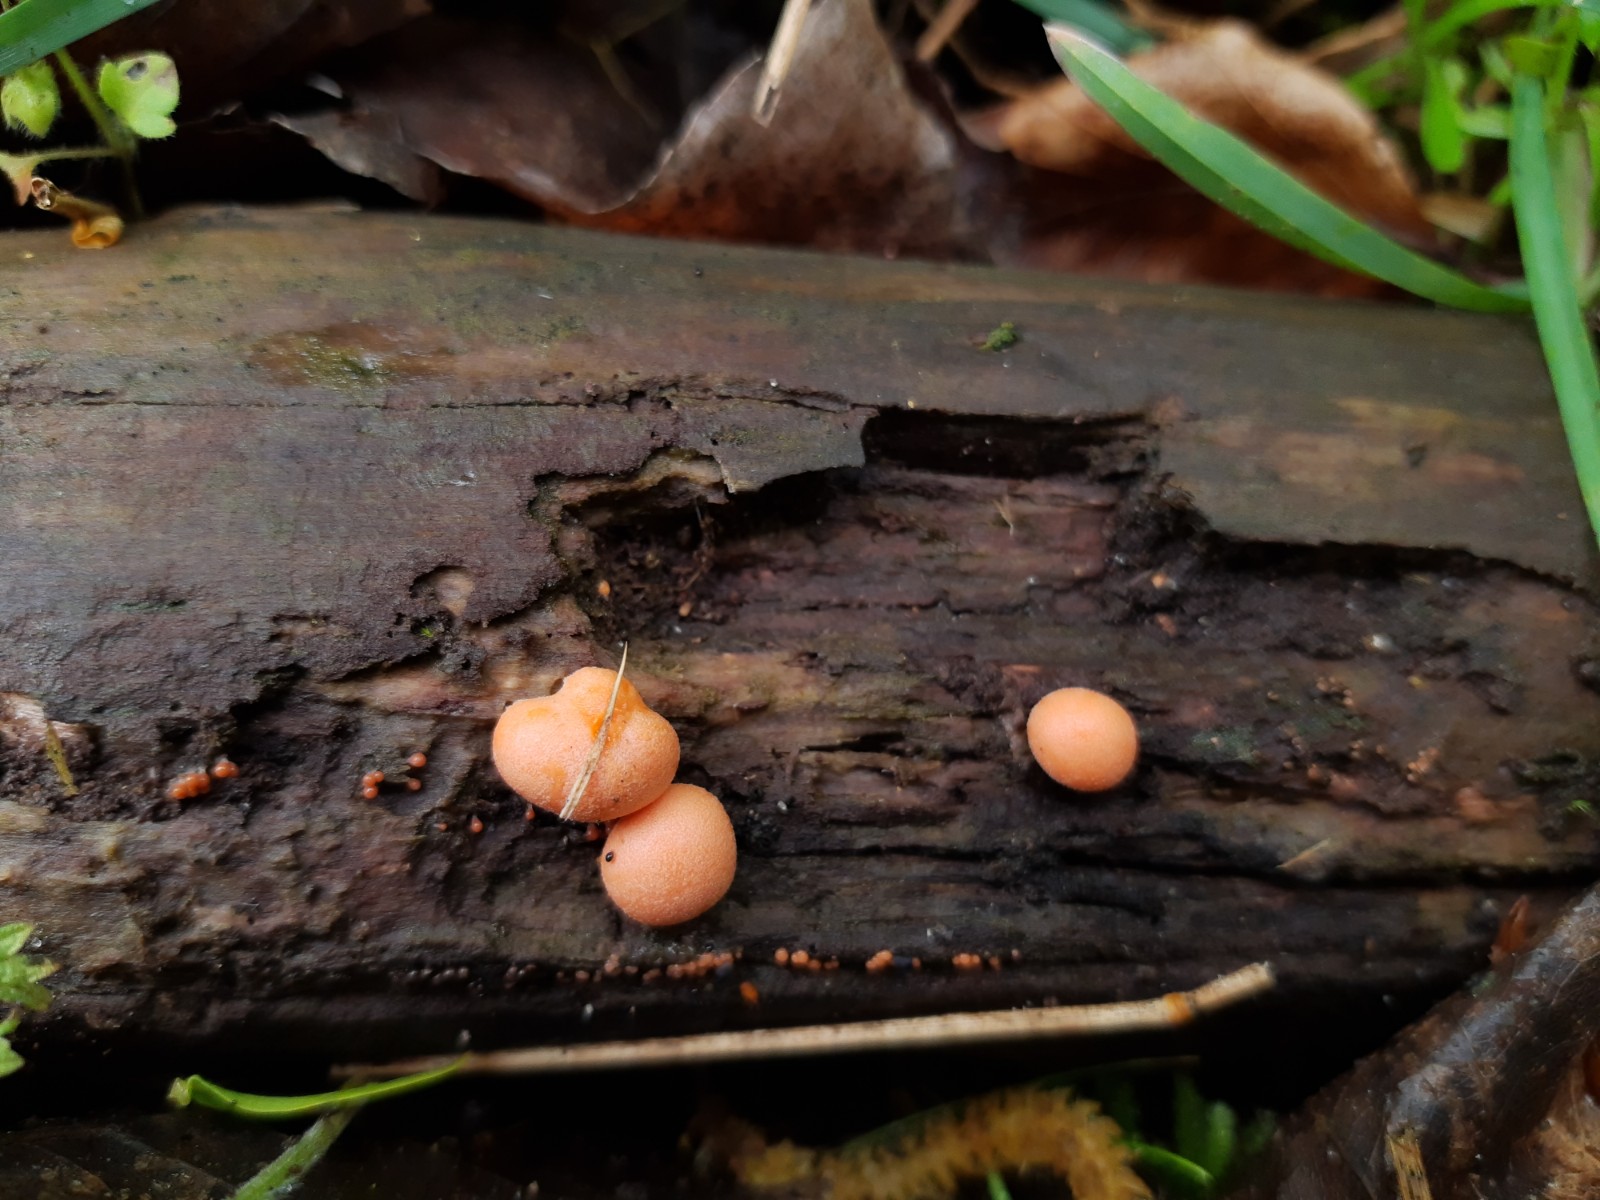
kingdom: Protozoa
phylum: Mycetozoa
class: Myxomycetes
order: Cribrariales
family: Tubiferaceae
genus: Lycogala
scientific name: Lycogala epidendrum
